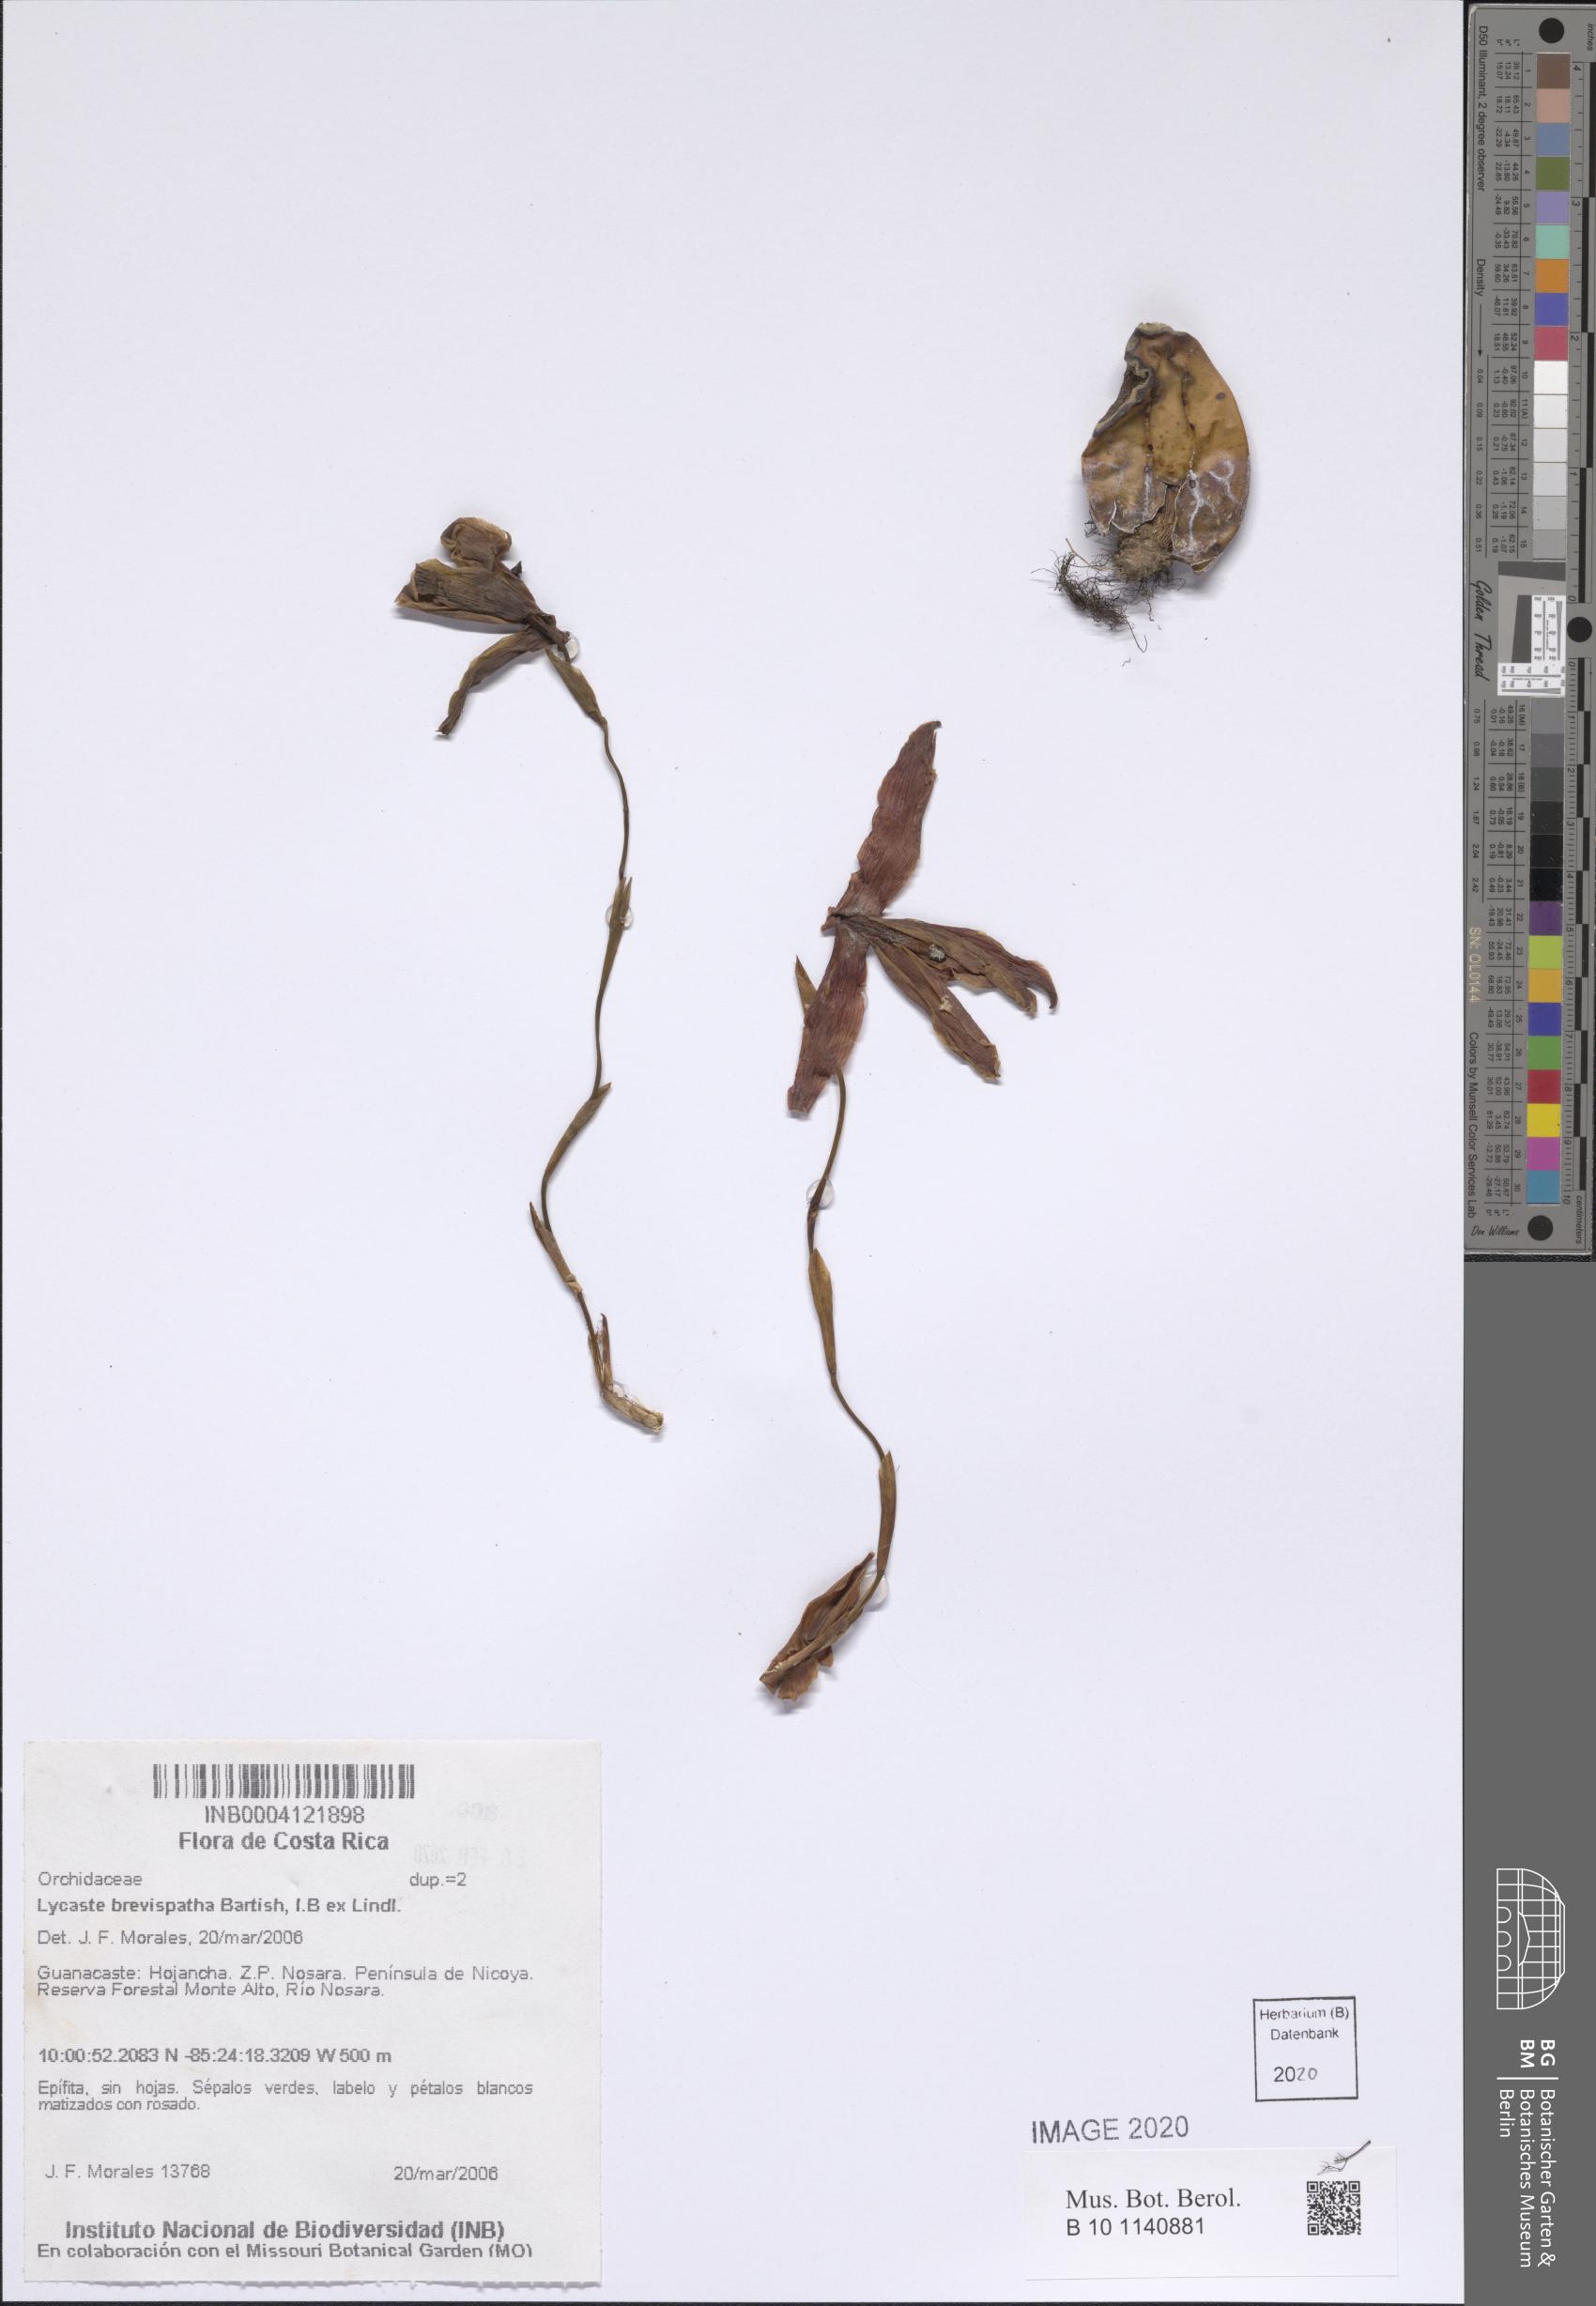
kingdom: Plantae
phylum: Tracheophyta
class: Liliopsida
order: Asparagales
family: Orchidaceae
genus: Lycaste
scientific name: Lycaste brevispatha
